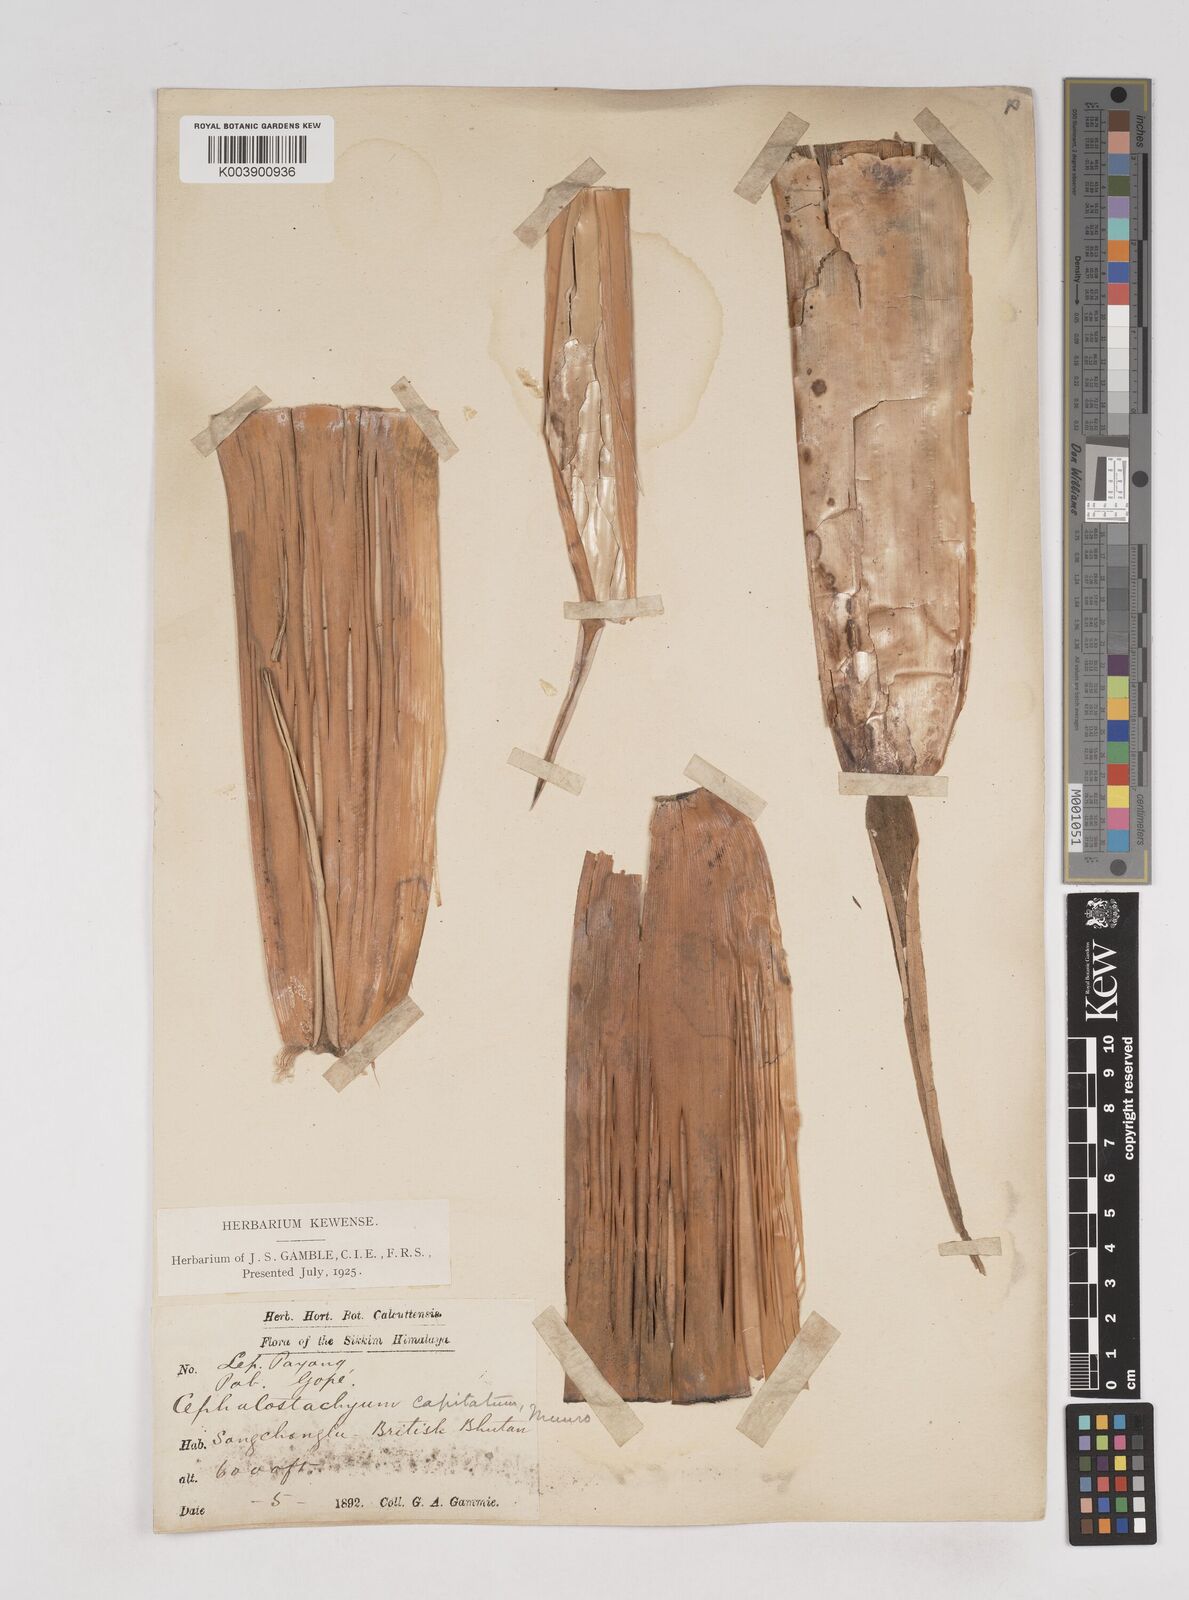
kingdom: Plantae
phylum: Tracheophyta
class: Liliopsida
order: Poales
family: Poaceae
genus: Cephalostachyum
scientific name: Cephalostachyum capitatum
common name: Hollow bamboo
